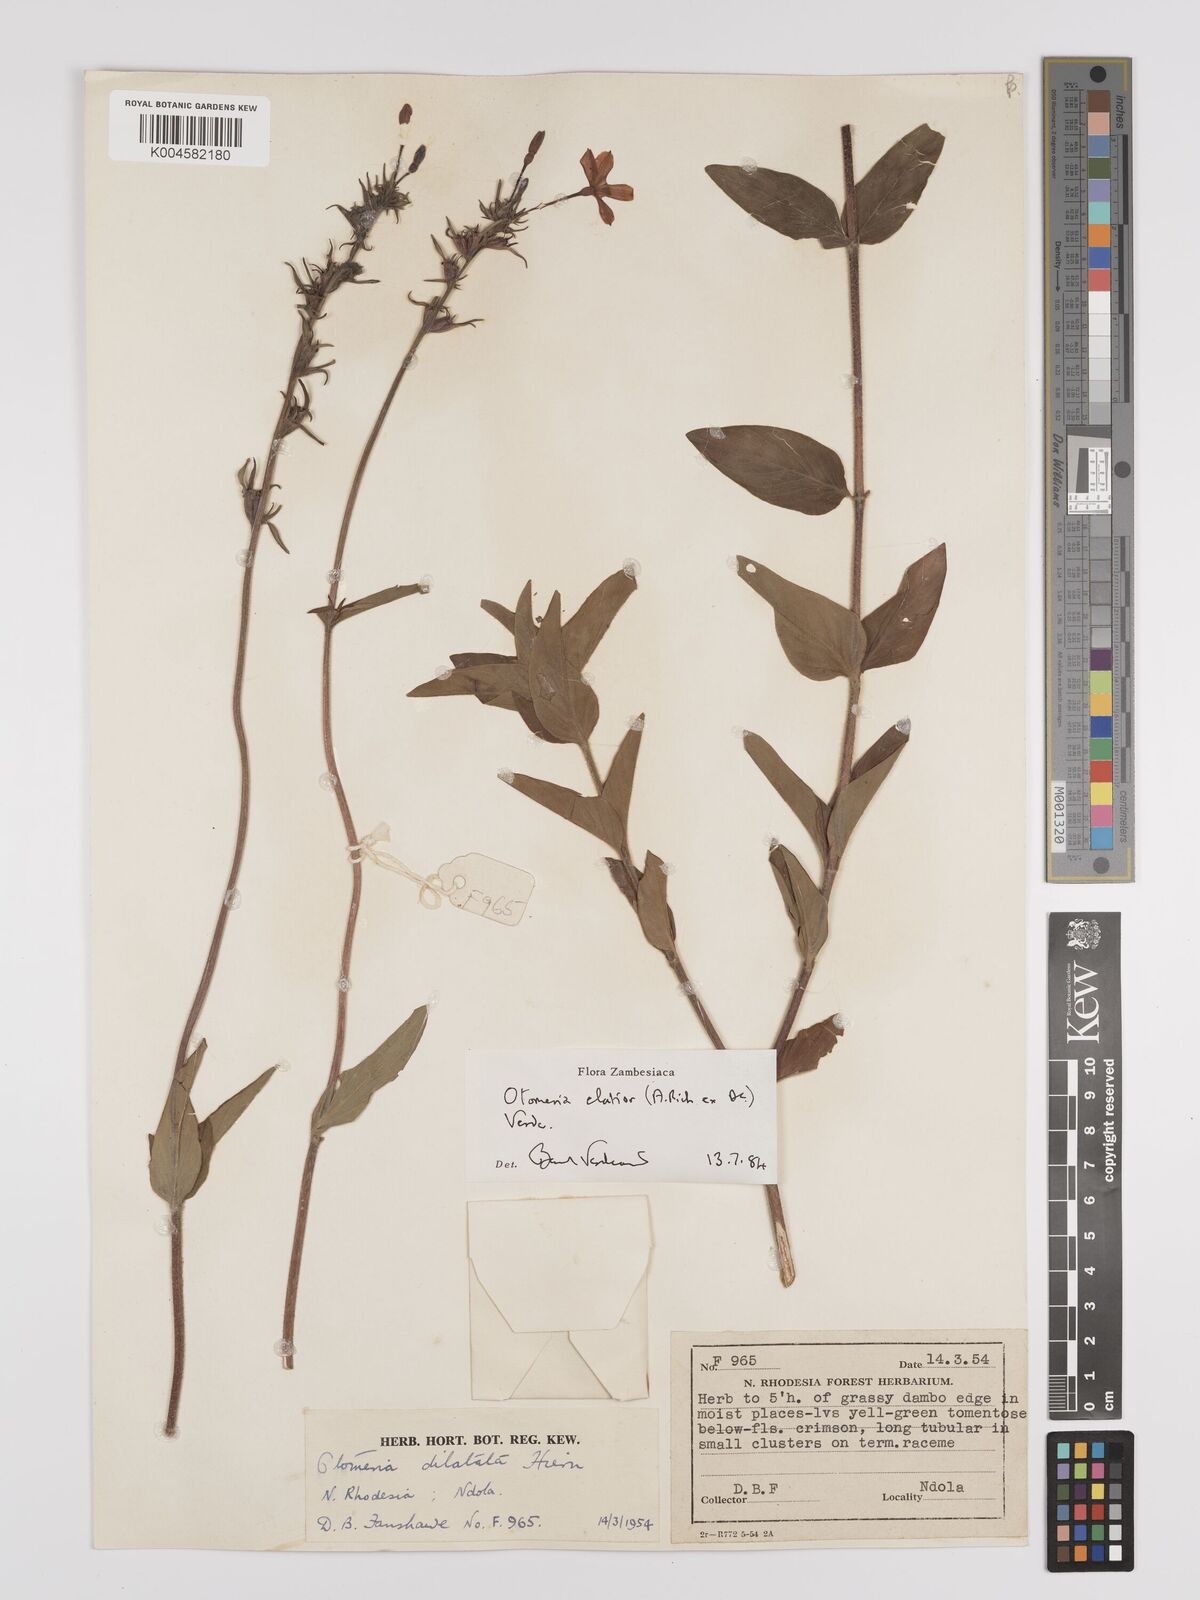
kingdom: Plantae
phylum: Tracheophyta
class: Magnoliopsida
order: Gentianales
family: Rubiaceae
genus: Otomeria
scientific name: Otomeria elatior
